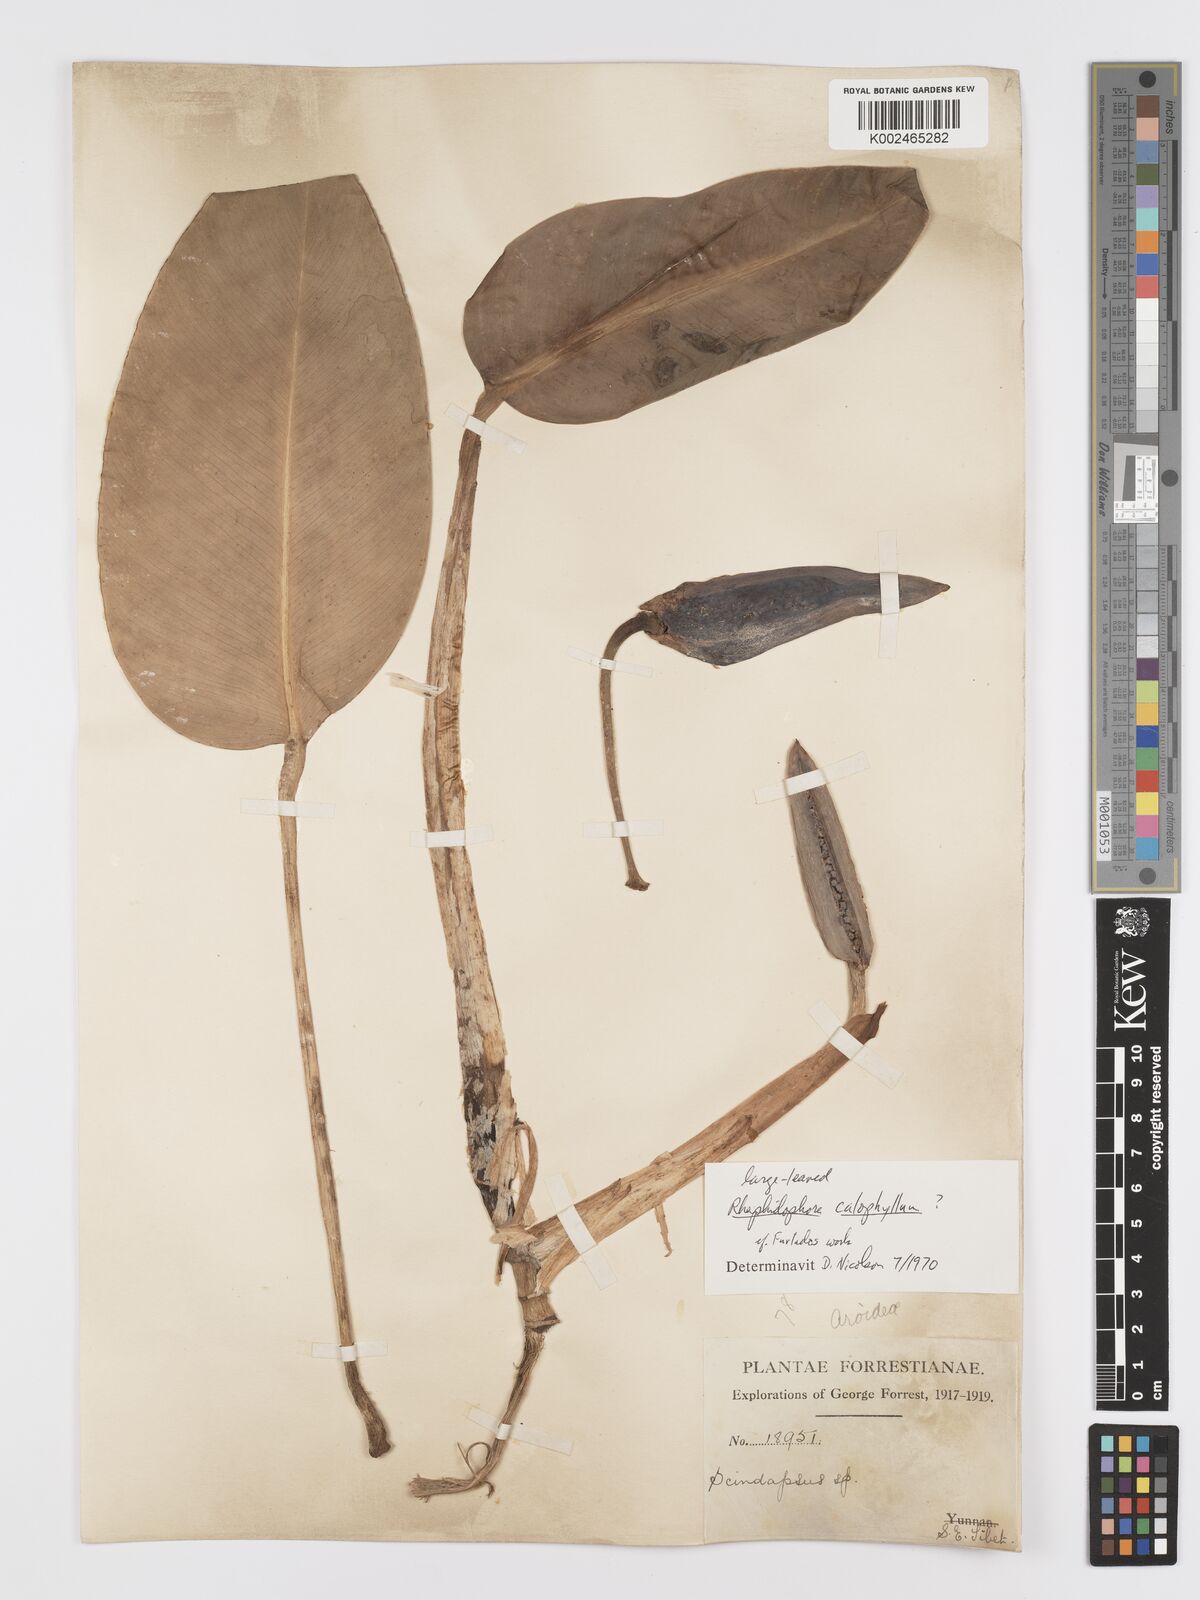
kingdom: Plantae
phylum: Tracheophyta
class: Liliopsida
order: Alismatales
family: Araceae
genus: Rhaphidophora
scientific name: Rhaphidophora calophylla
